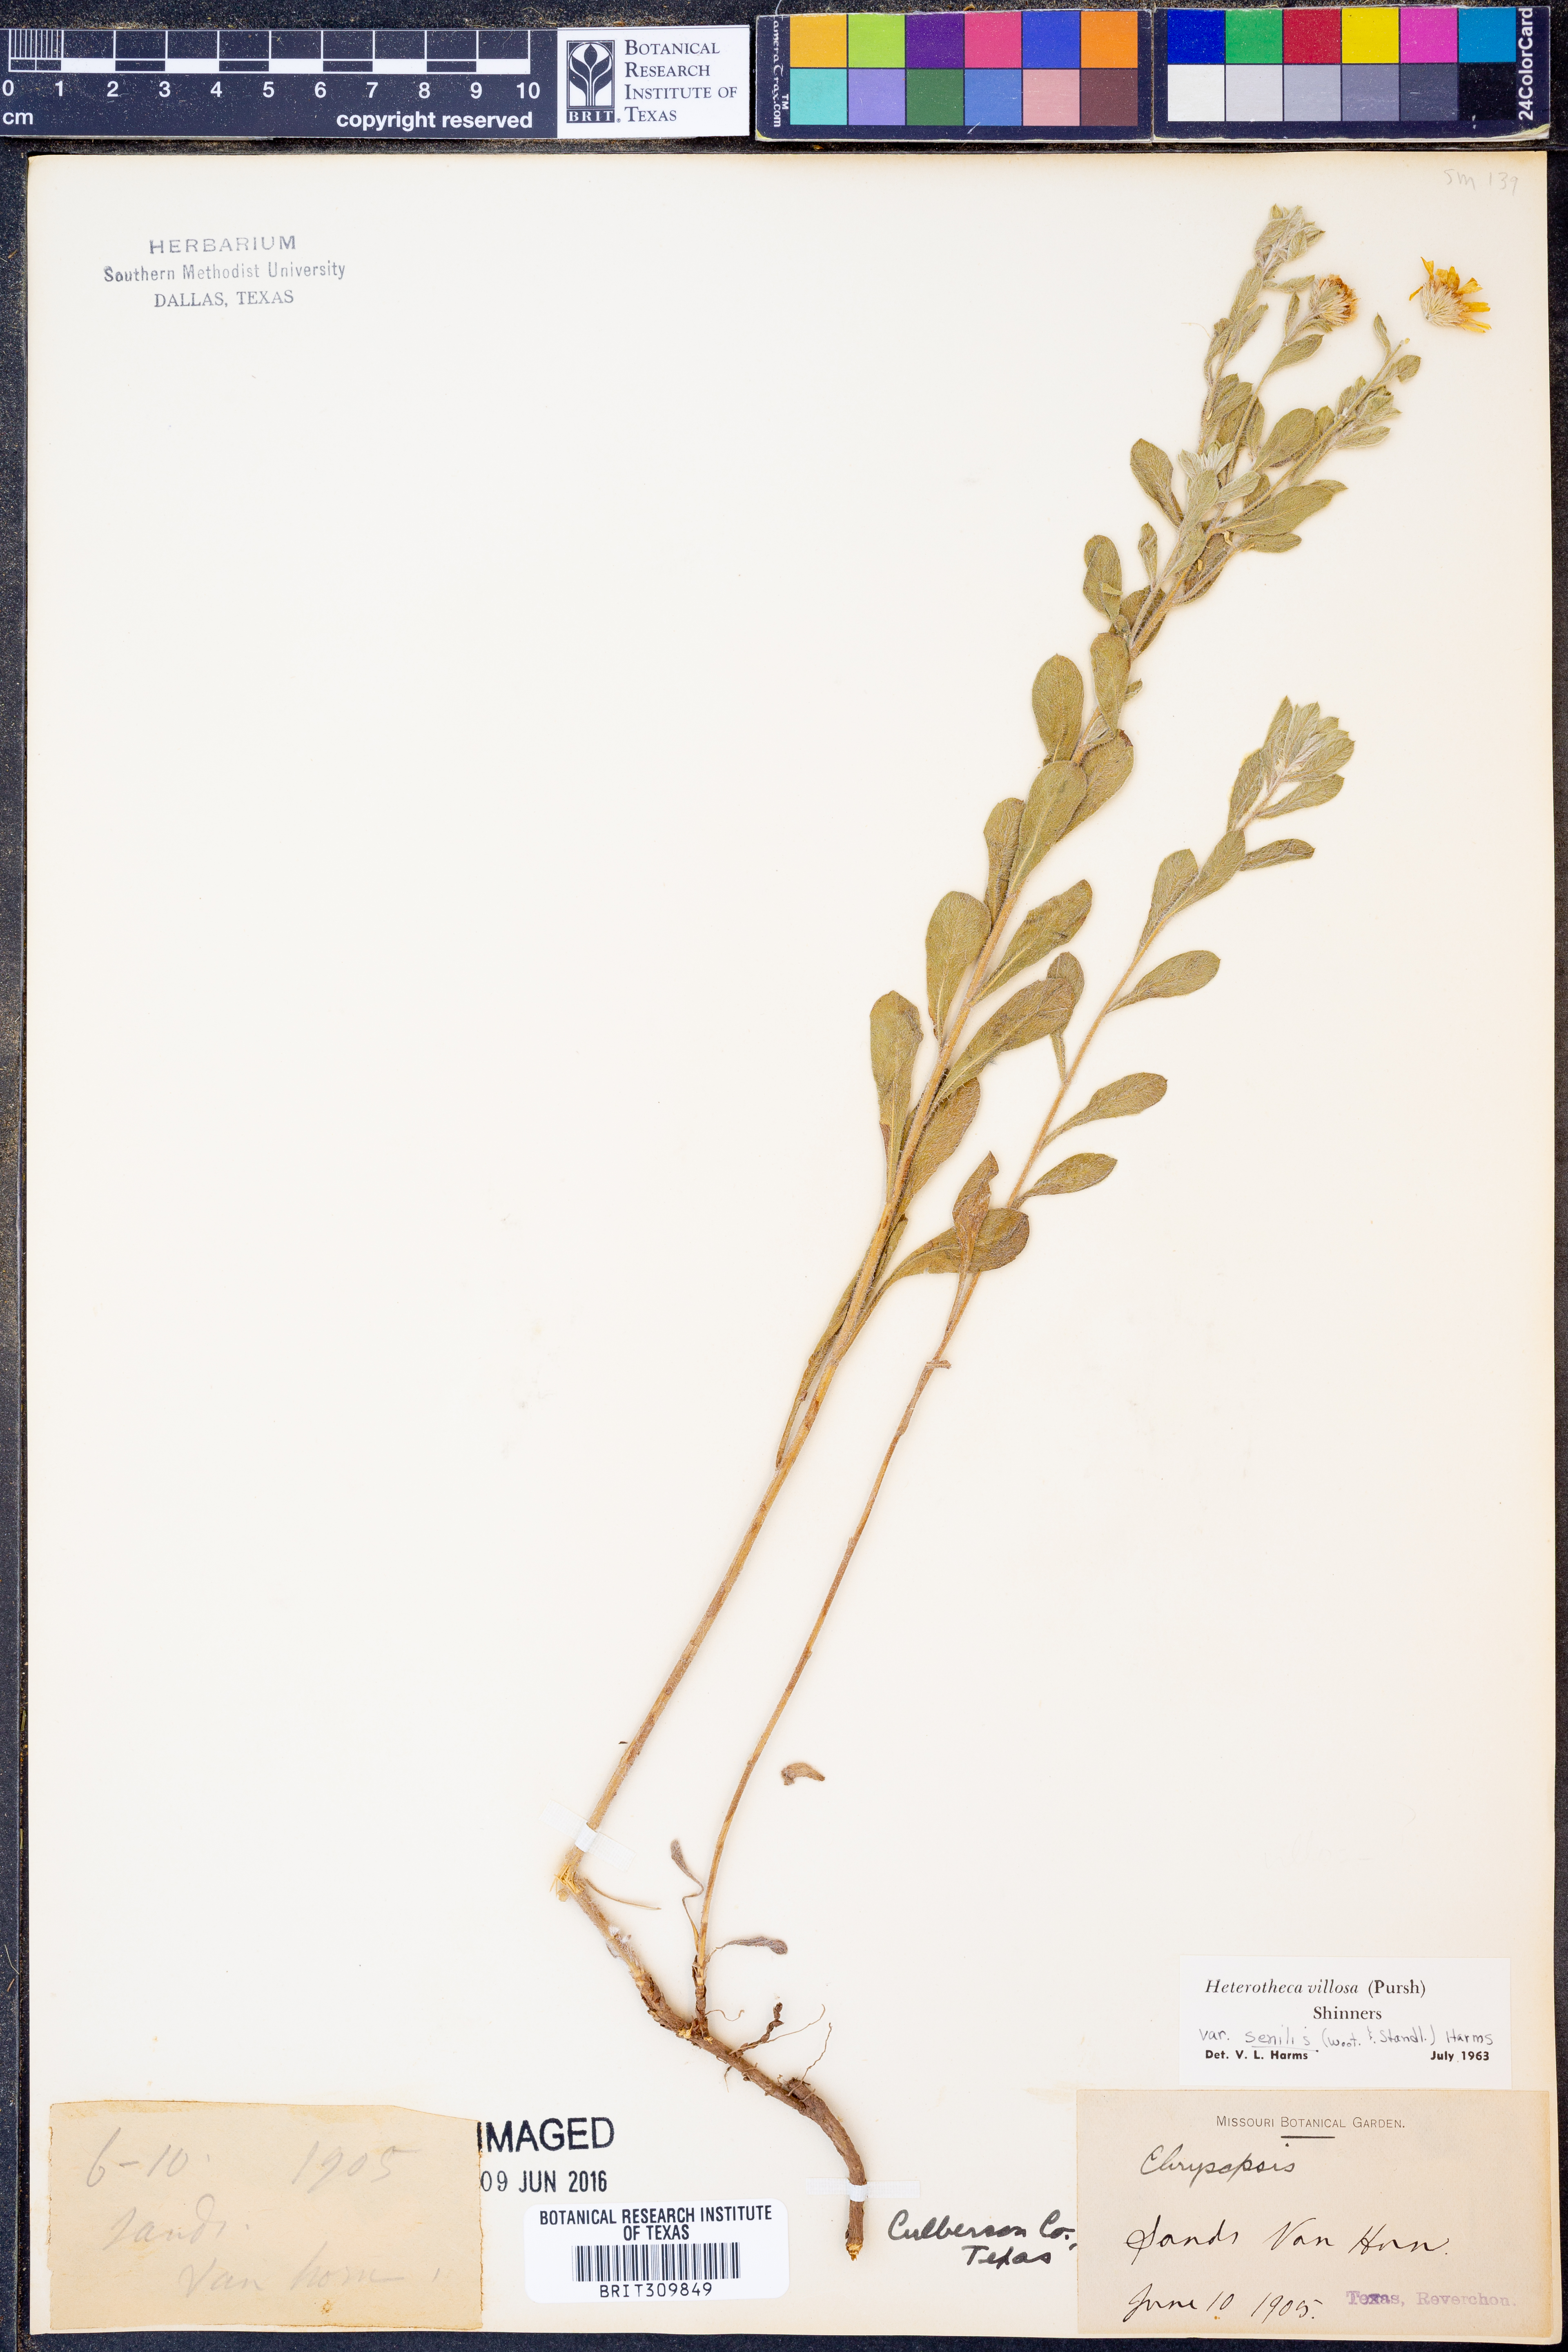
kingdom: Plantae
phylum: Tracheophyta
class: Magnoliopsida
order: Asterales
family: Asteraceae
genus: Heterotheca
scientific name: Heterotheca villosa
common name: Hairy false goldenaster
